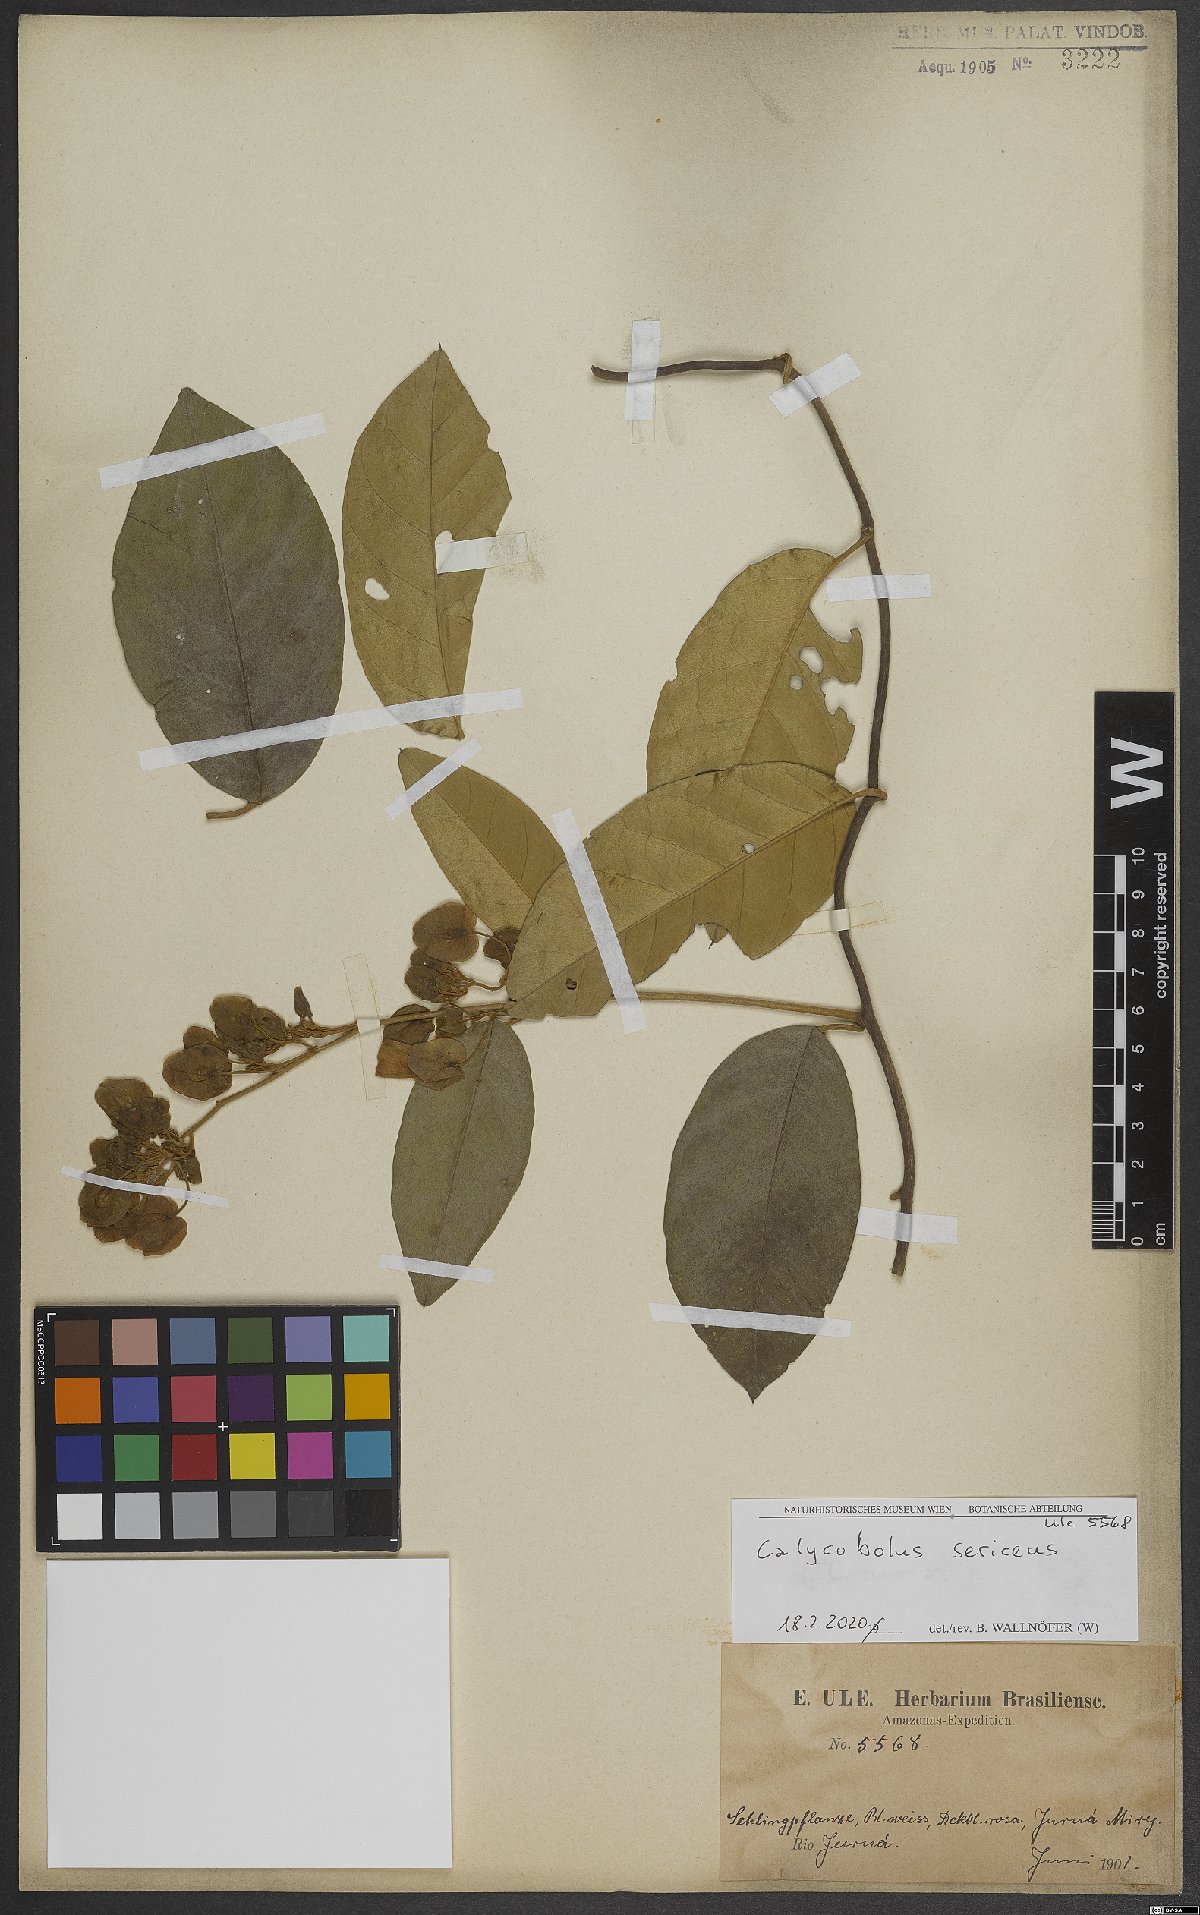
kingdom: Plantae
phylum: Tracheophyta
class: Magnoliopsida
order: Solanales
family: Convolvulaceae
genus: Calycobolus
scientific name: Calycobolus sericeus
